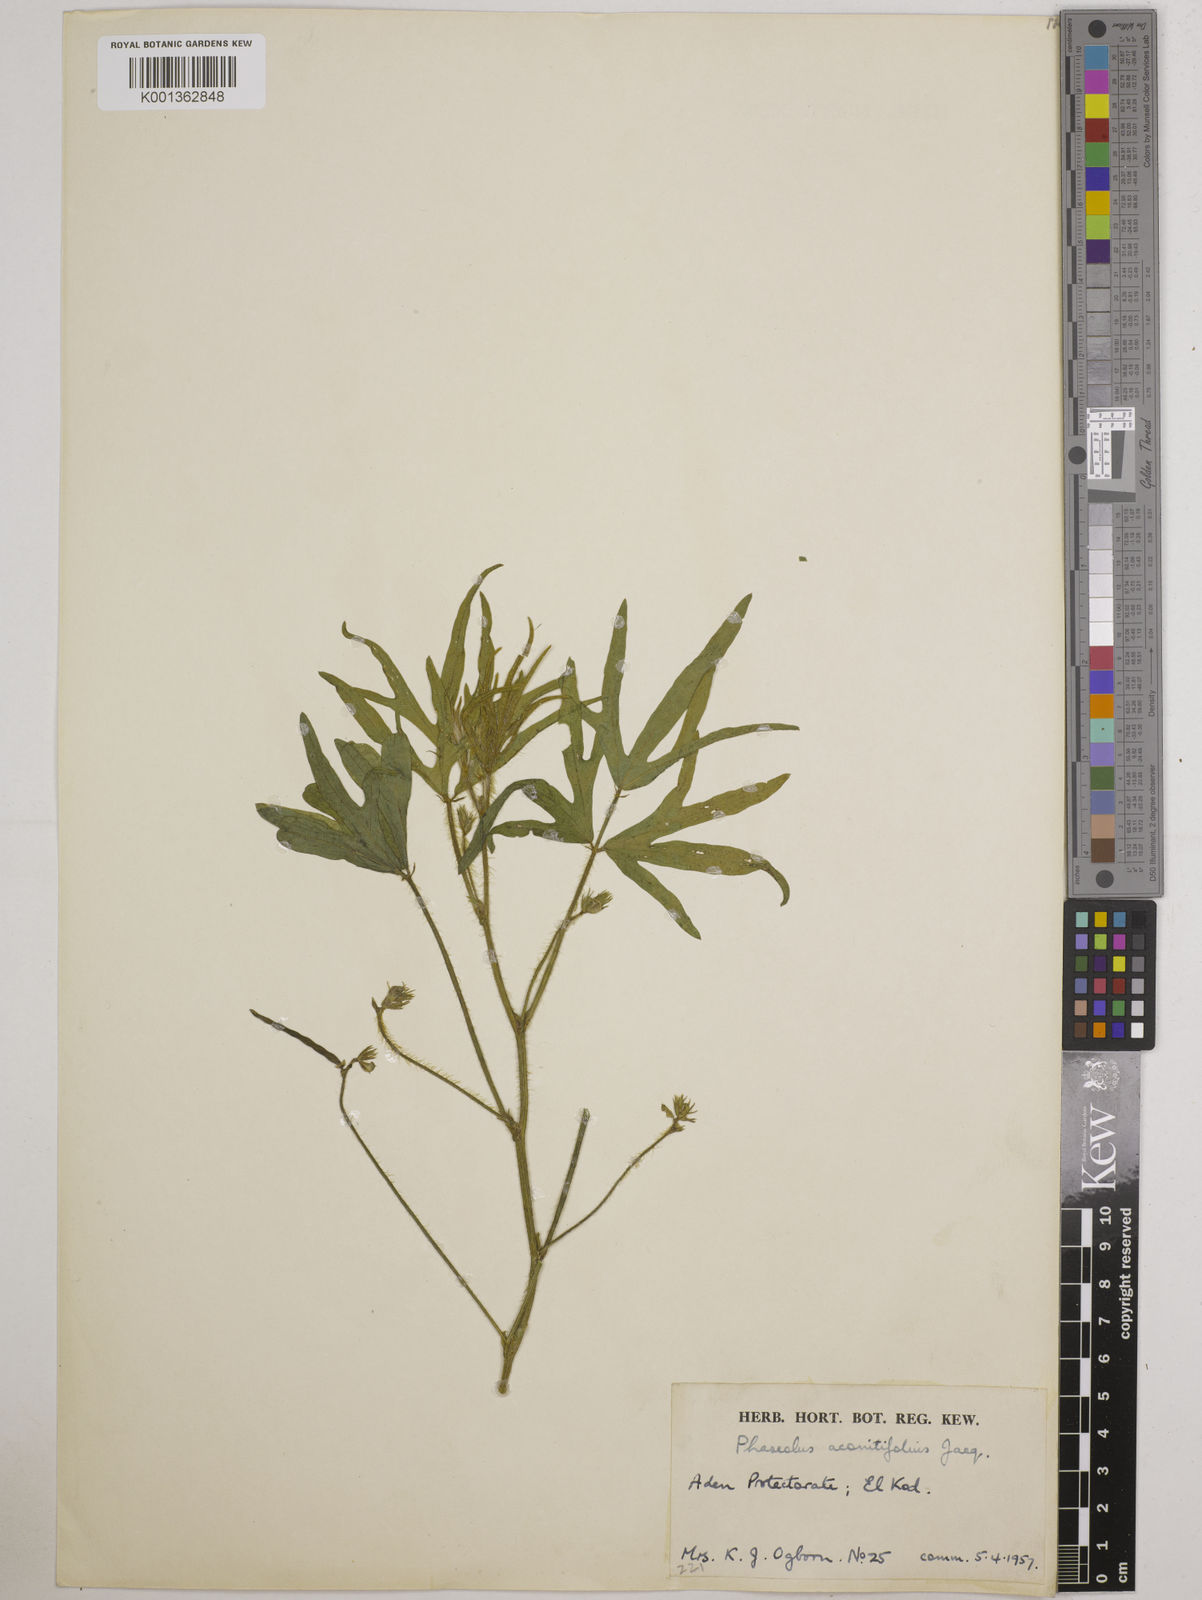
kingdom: Plantae
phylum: Tracheophyta
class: Magnoliopsida
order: Fabales
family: Fabaceae
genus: Vigna
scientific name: Vigna aconitifolia
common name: Dew bean
